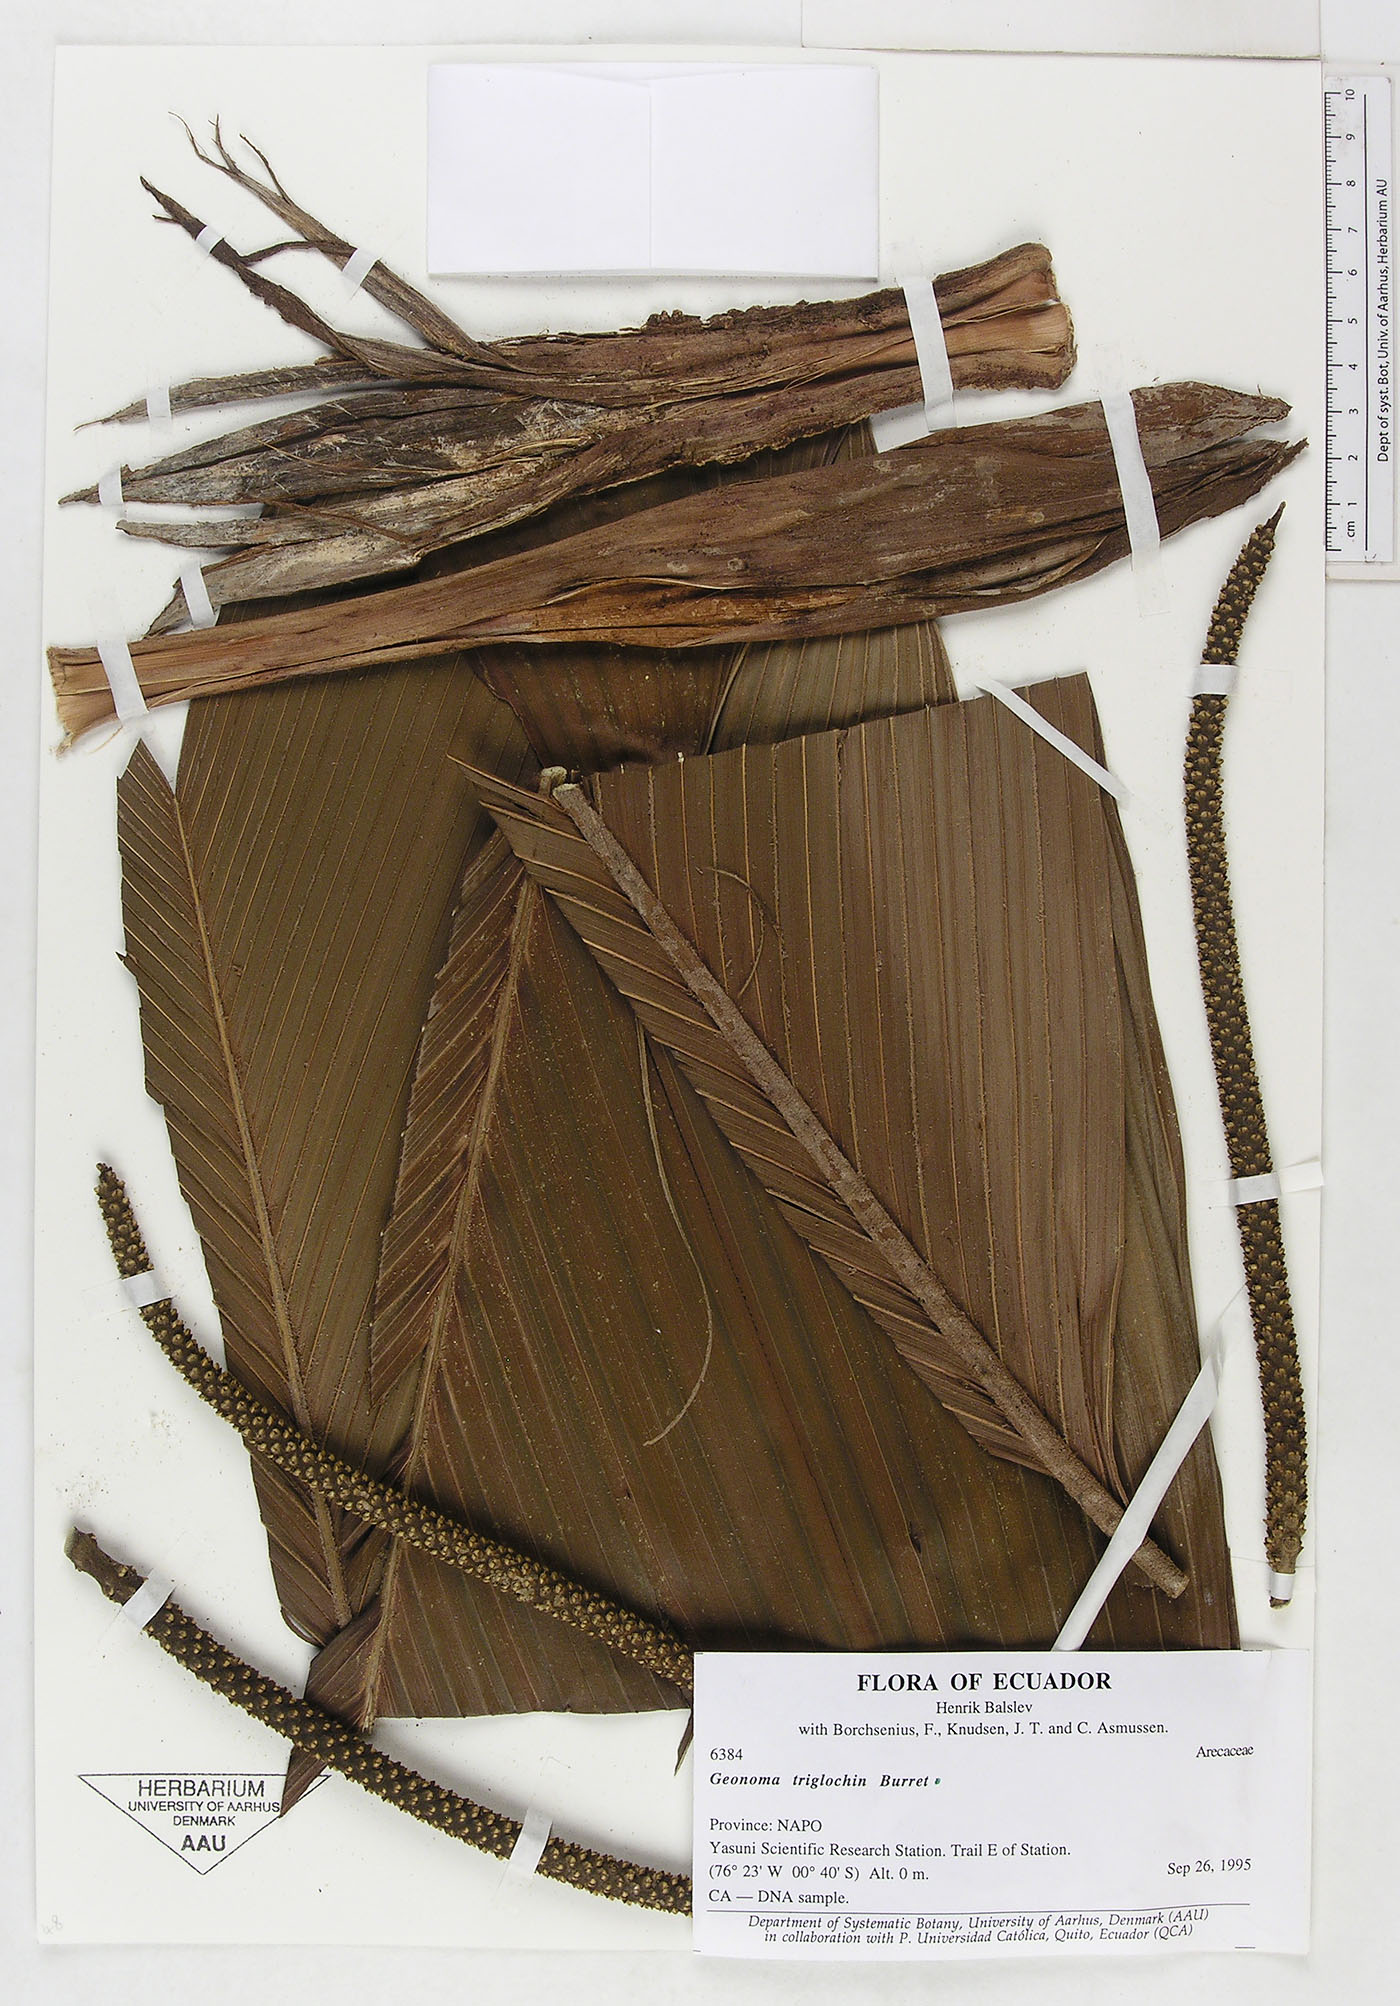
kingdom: Plantae
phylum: Tracheophyta
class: Liliopsida
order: Arecales
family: Arecaceae
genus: Geonoma
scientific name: Geonoma triglochin
